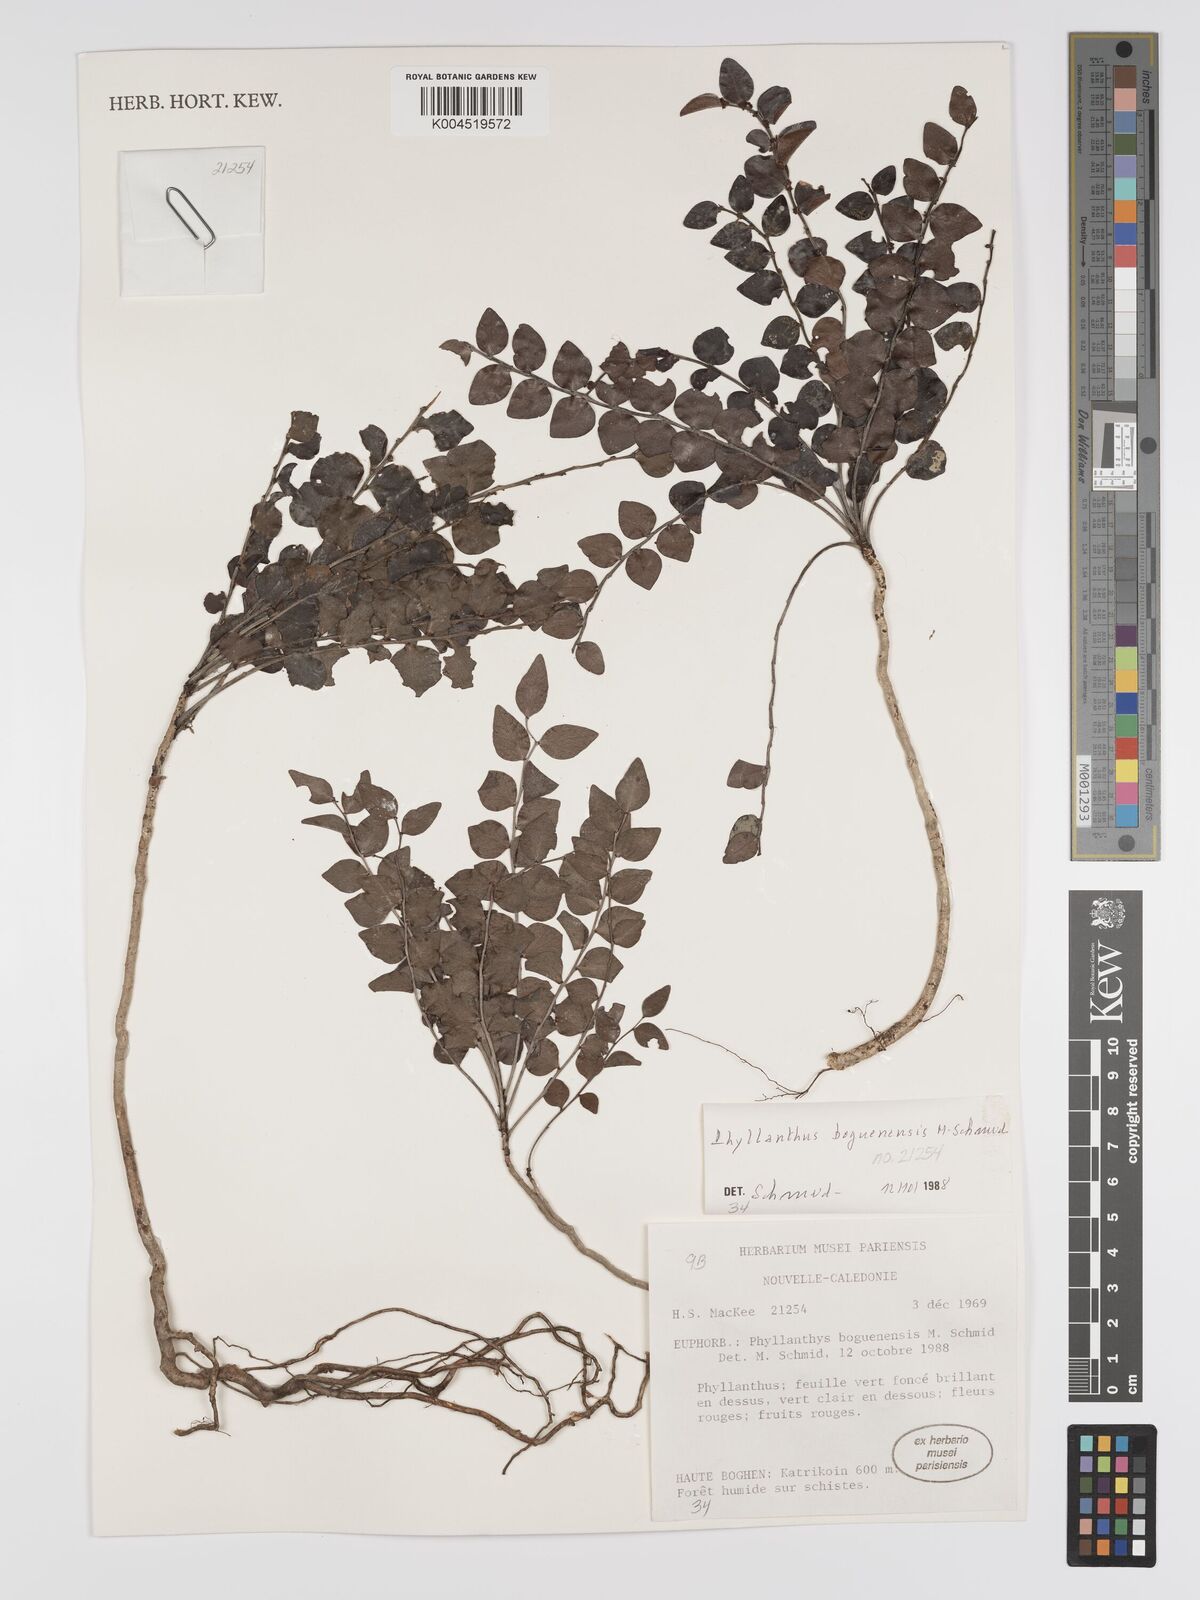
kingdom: Plantae
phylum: Tracheophyta
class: Magnoliopsida
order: Malpighiales
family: Phyllanthaceae
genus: Phyllanthus
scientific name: Phyllanthus boguenensis
